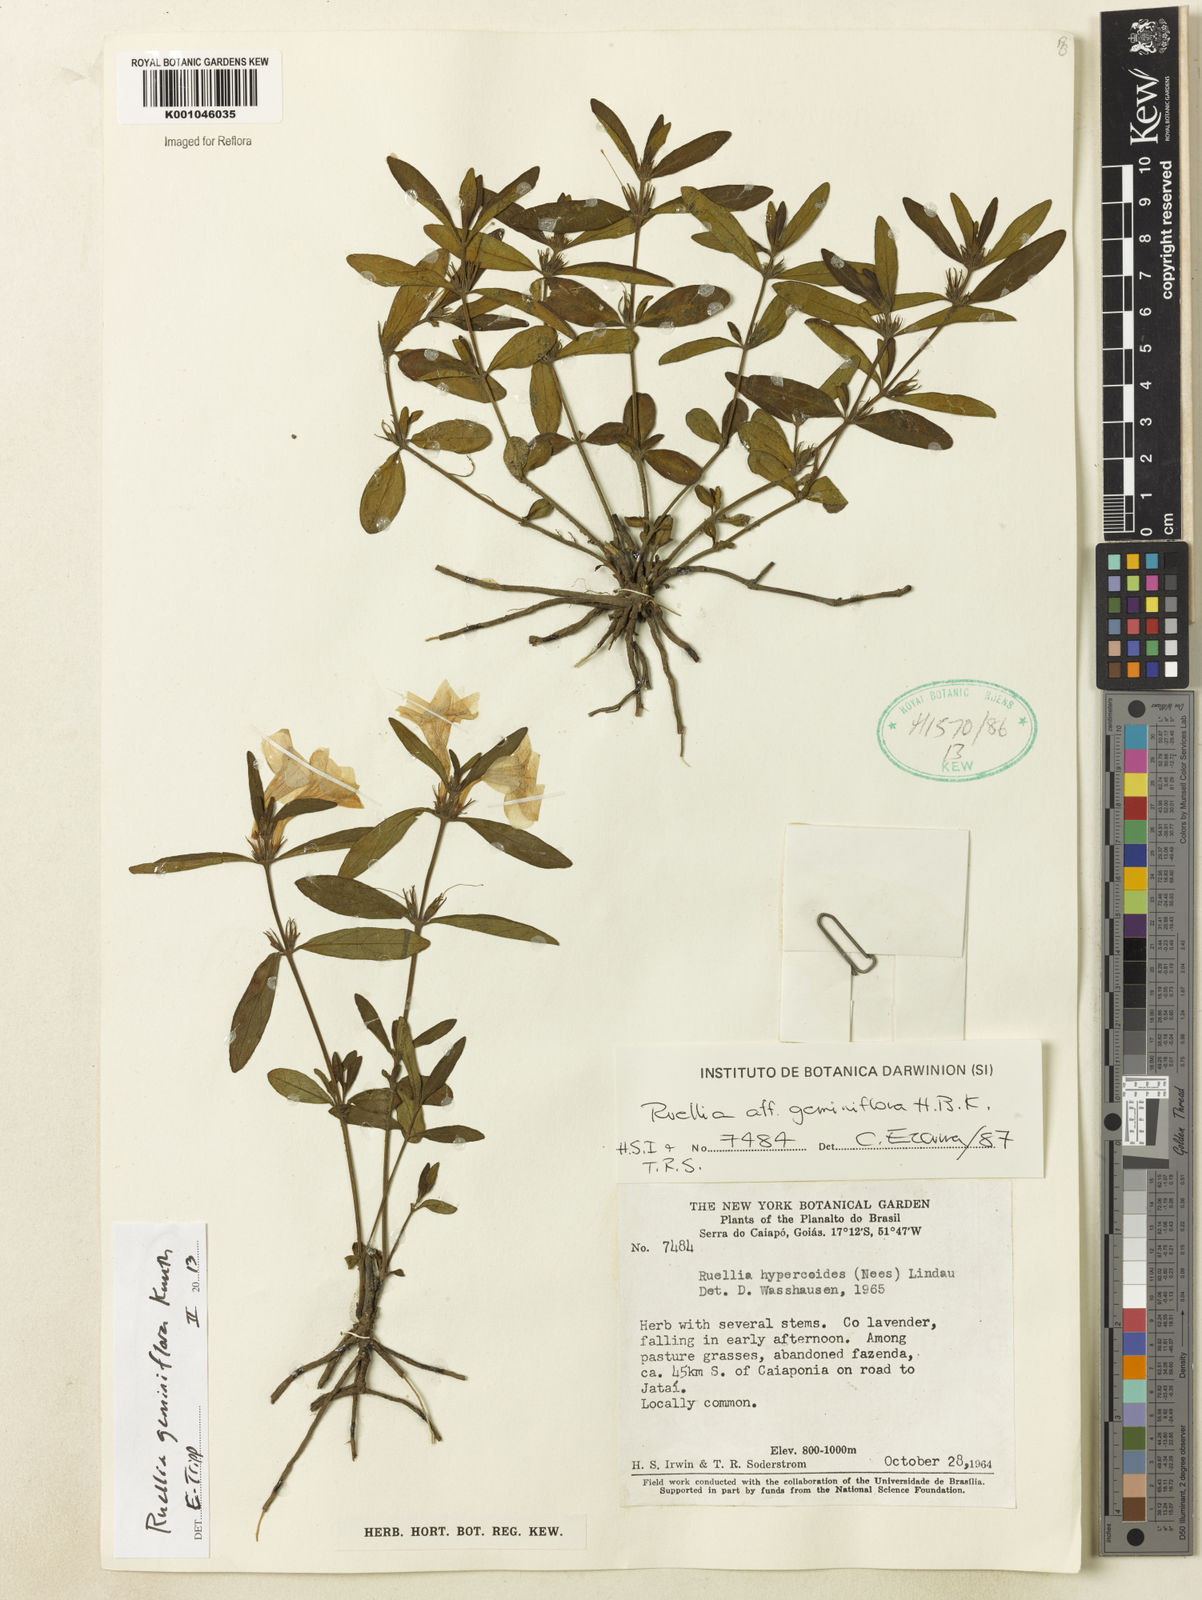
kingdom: Plantae
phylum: Tracheophyta
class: Magnoliopsida
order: Lamiales
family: Acanthaceae
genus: Ruellia
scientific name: Ruellia geminiflora
